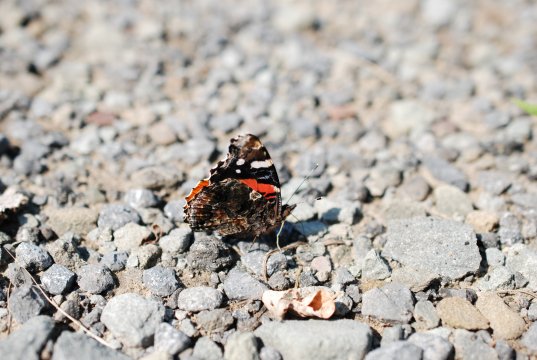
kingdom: Animalia
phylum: Arthropoda
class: Insecta
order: Lepidoptera
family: Nymphalidae
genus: Vanessa
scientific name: Vanessa atalanta
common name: Red Admiral
